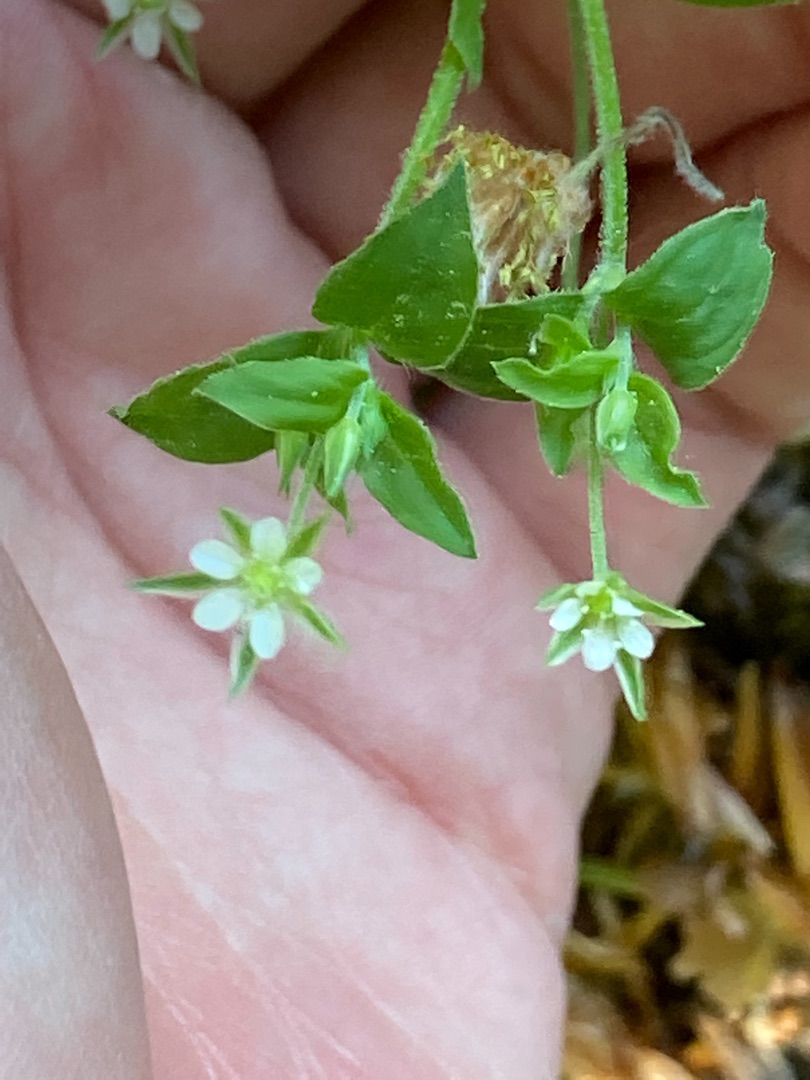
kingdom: Plantae
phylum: Tracheophyta
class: Magnoliopsida
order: Caryophyllales
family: Caryophyllaceae
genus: Moehringia
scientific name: Moehringia trinervia
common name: Skovarve
